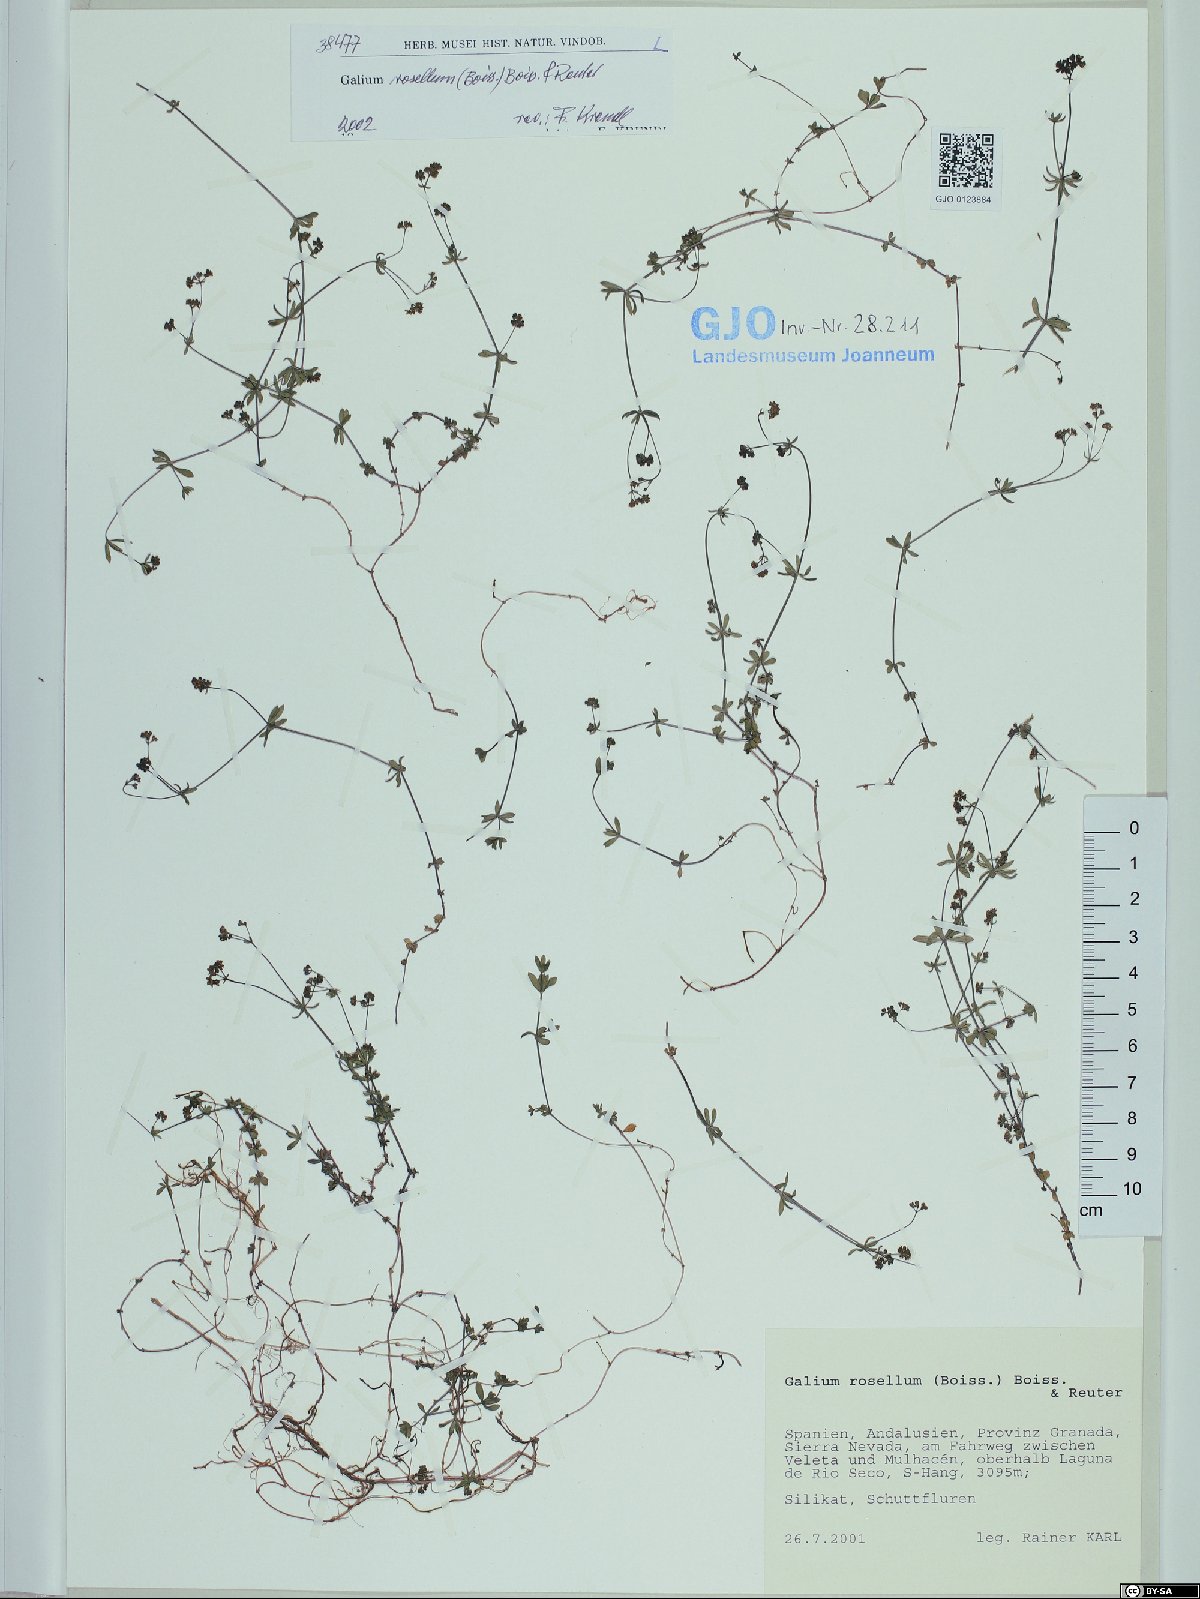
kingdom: Plantae
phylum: Tracheophyta
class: Magnoliopsida
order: Gentianales
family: Rubiaceae
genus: Galium
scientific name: Galium rosellum
